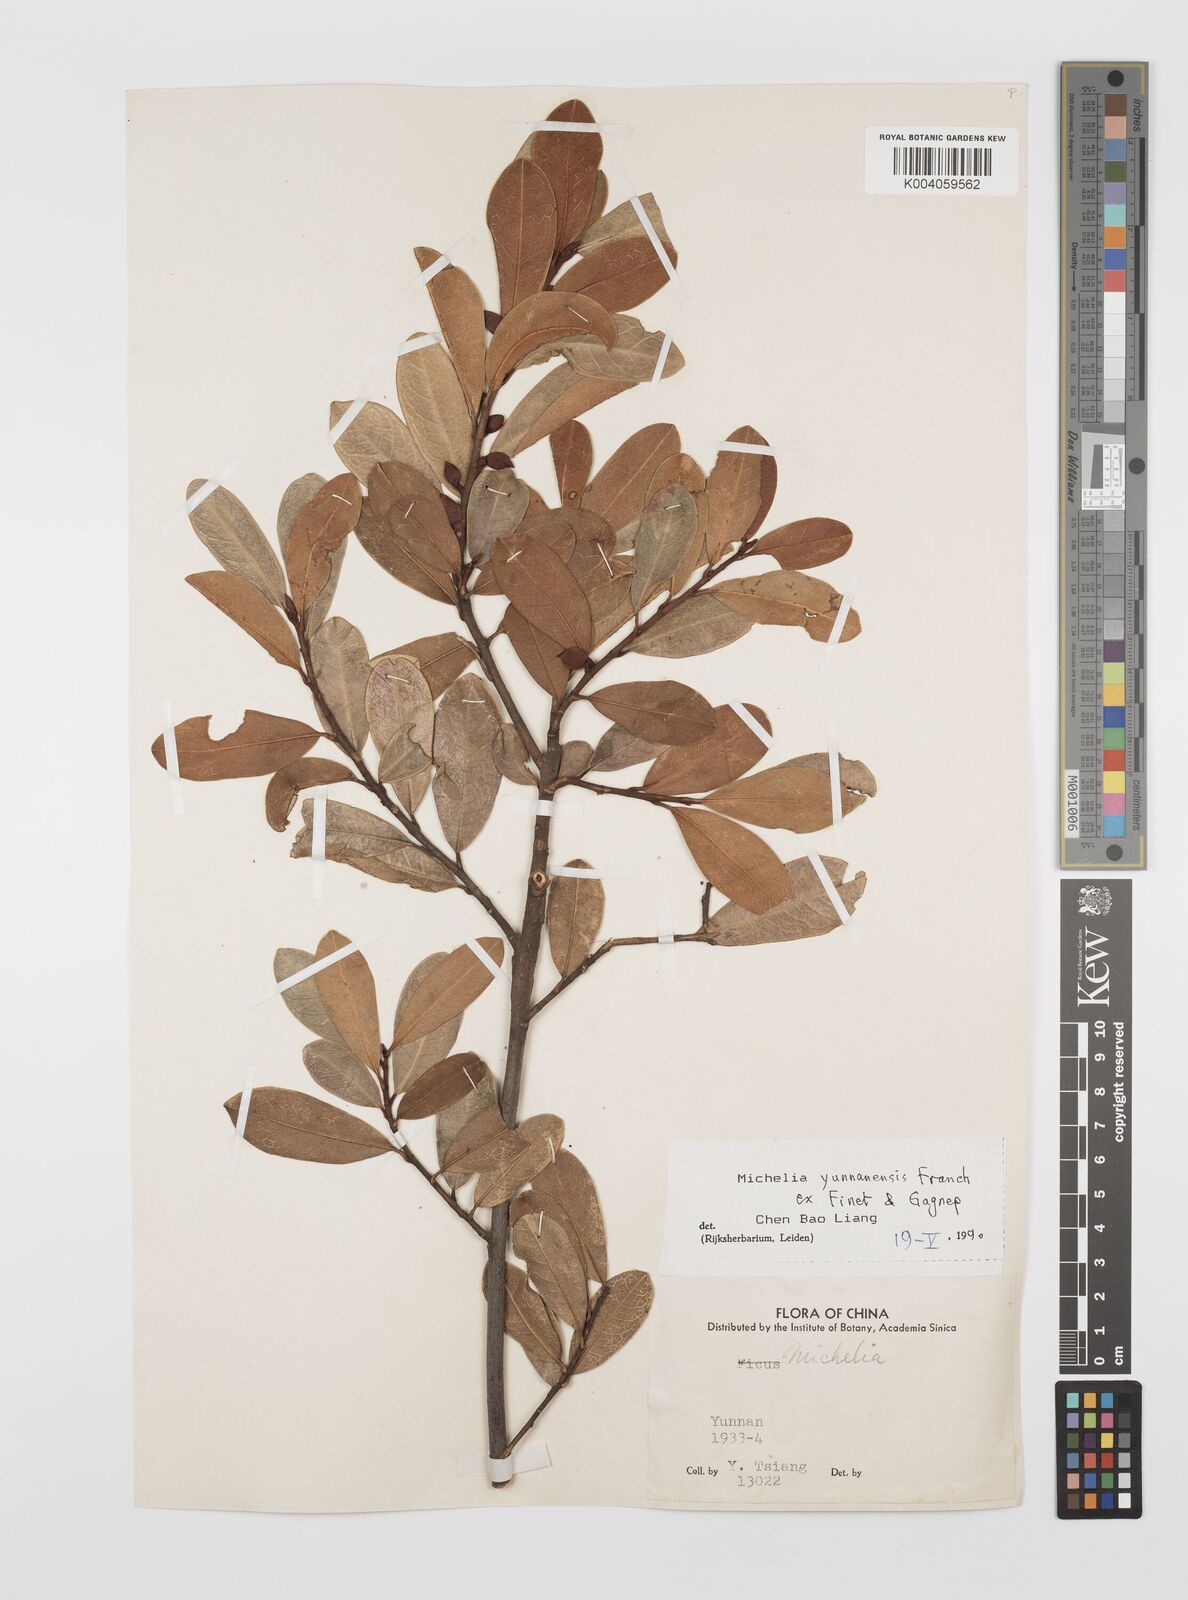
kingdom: Plantae
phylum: Tracheophyta
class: Magnoliopsida
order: Magnoliales
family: Magnoliaceae
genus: Magnolia
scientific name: Magnolia laevifolia
